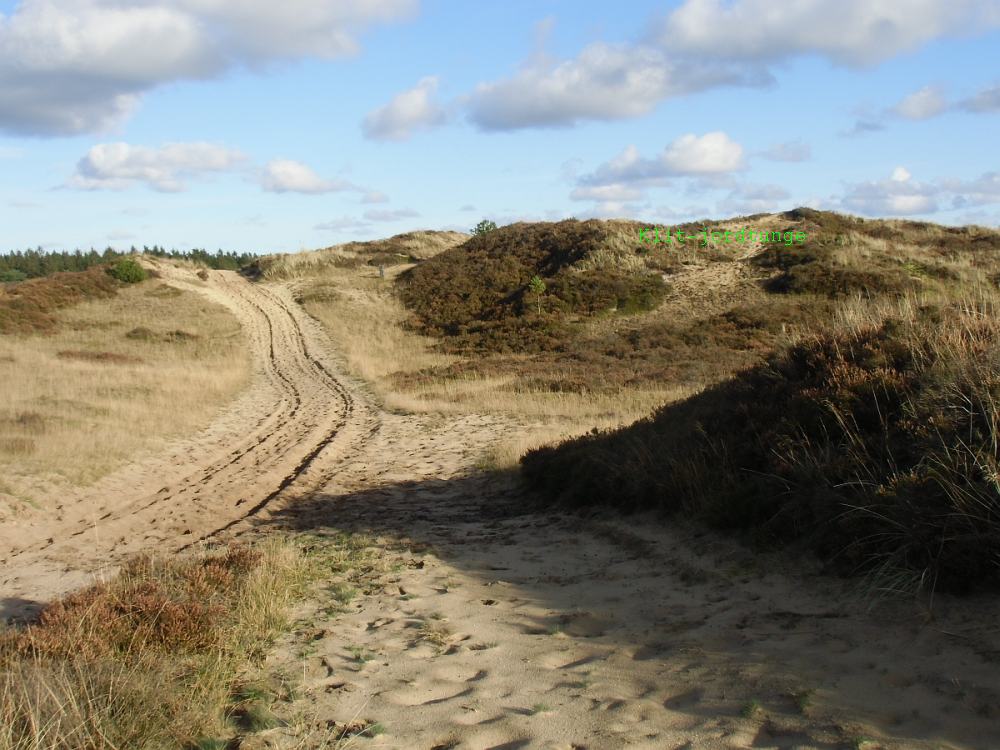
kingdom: Fungi
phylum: Ascomycota
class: Geoglossomycetes
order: Geoglossales
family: Geoglossaceae
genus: Sabuloglossum
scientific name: Sabuloglossum arenarium
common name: klit-jordtunge
